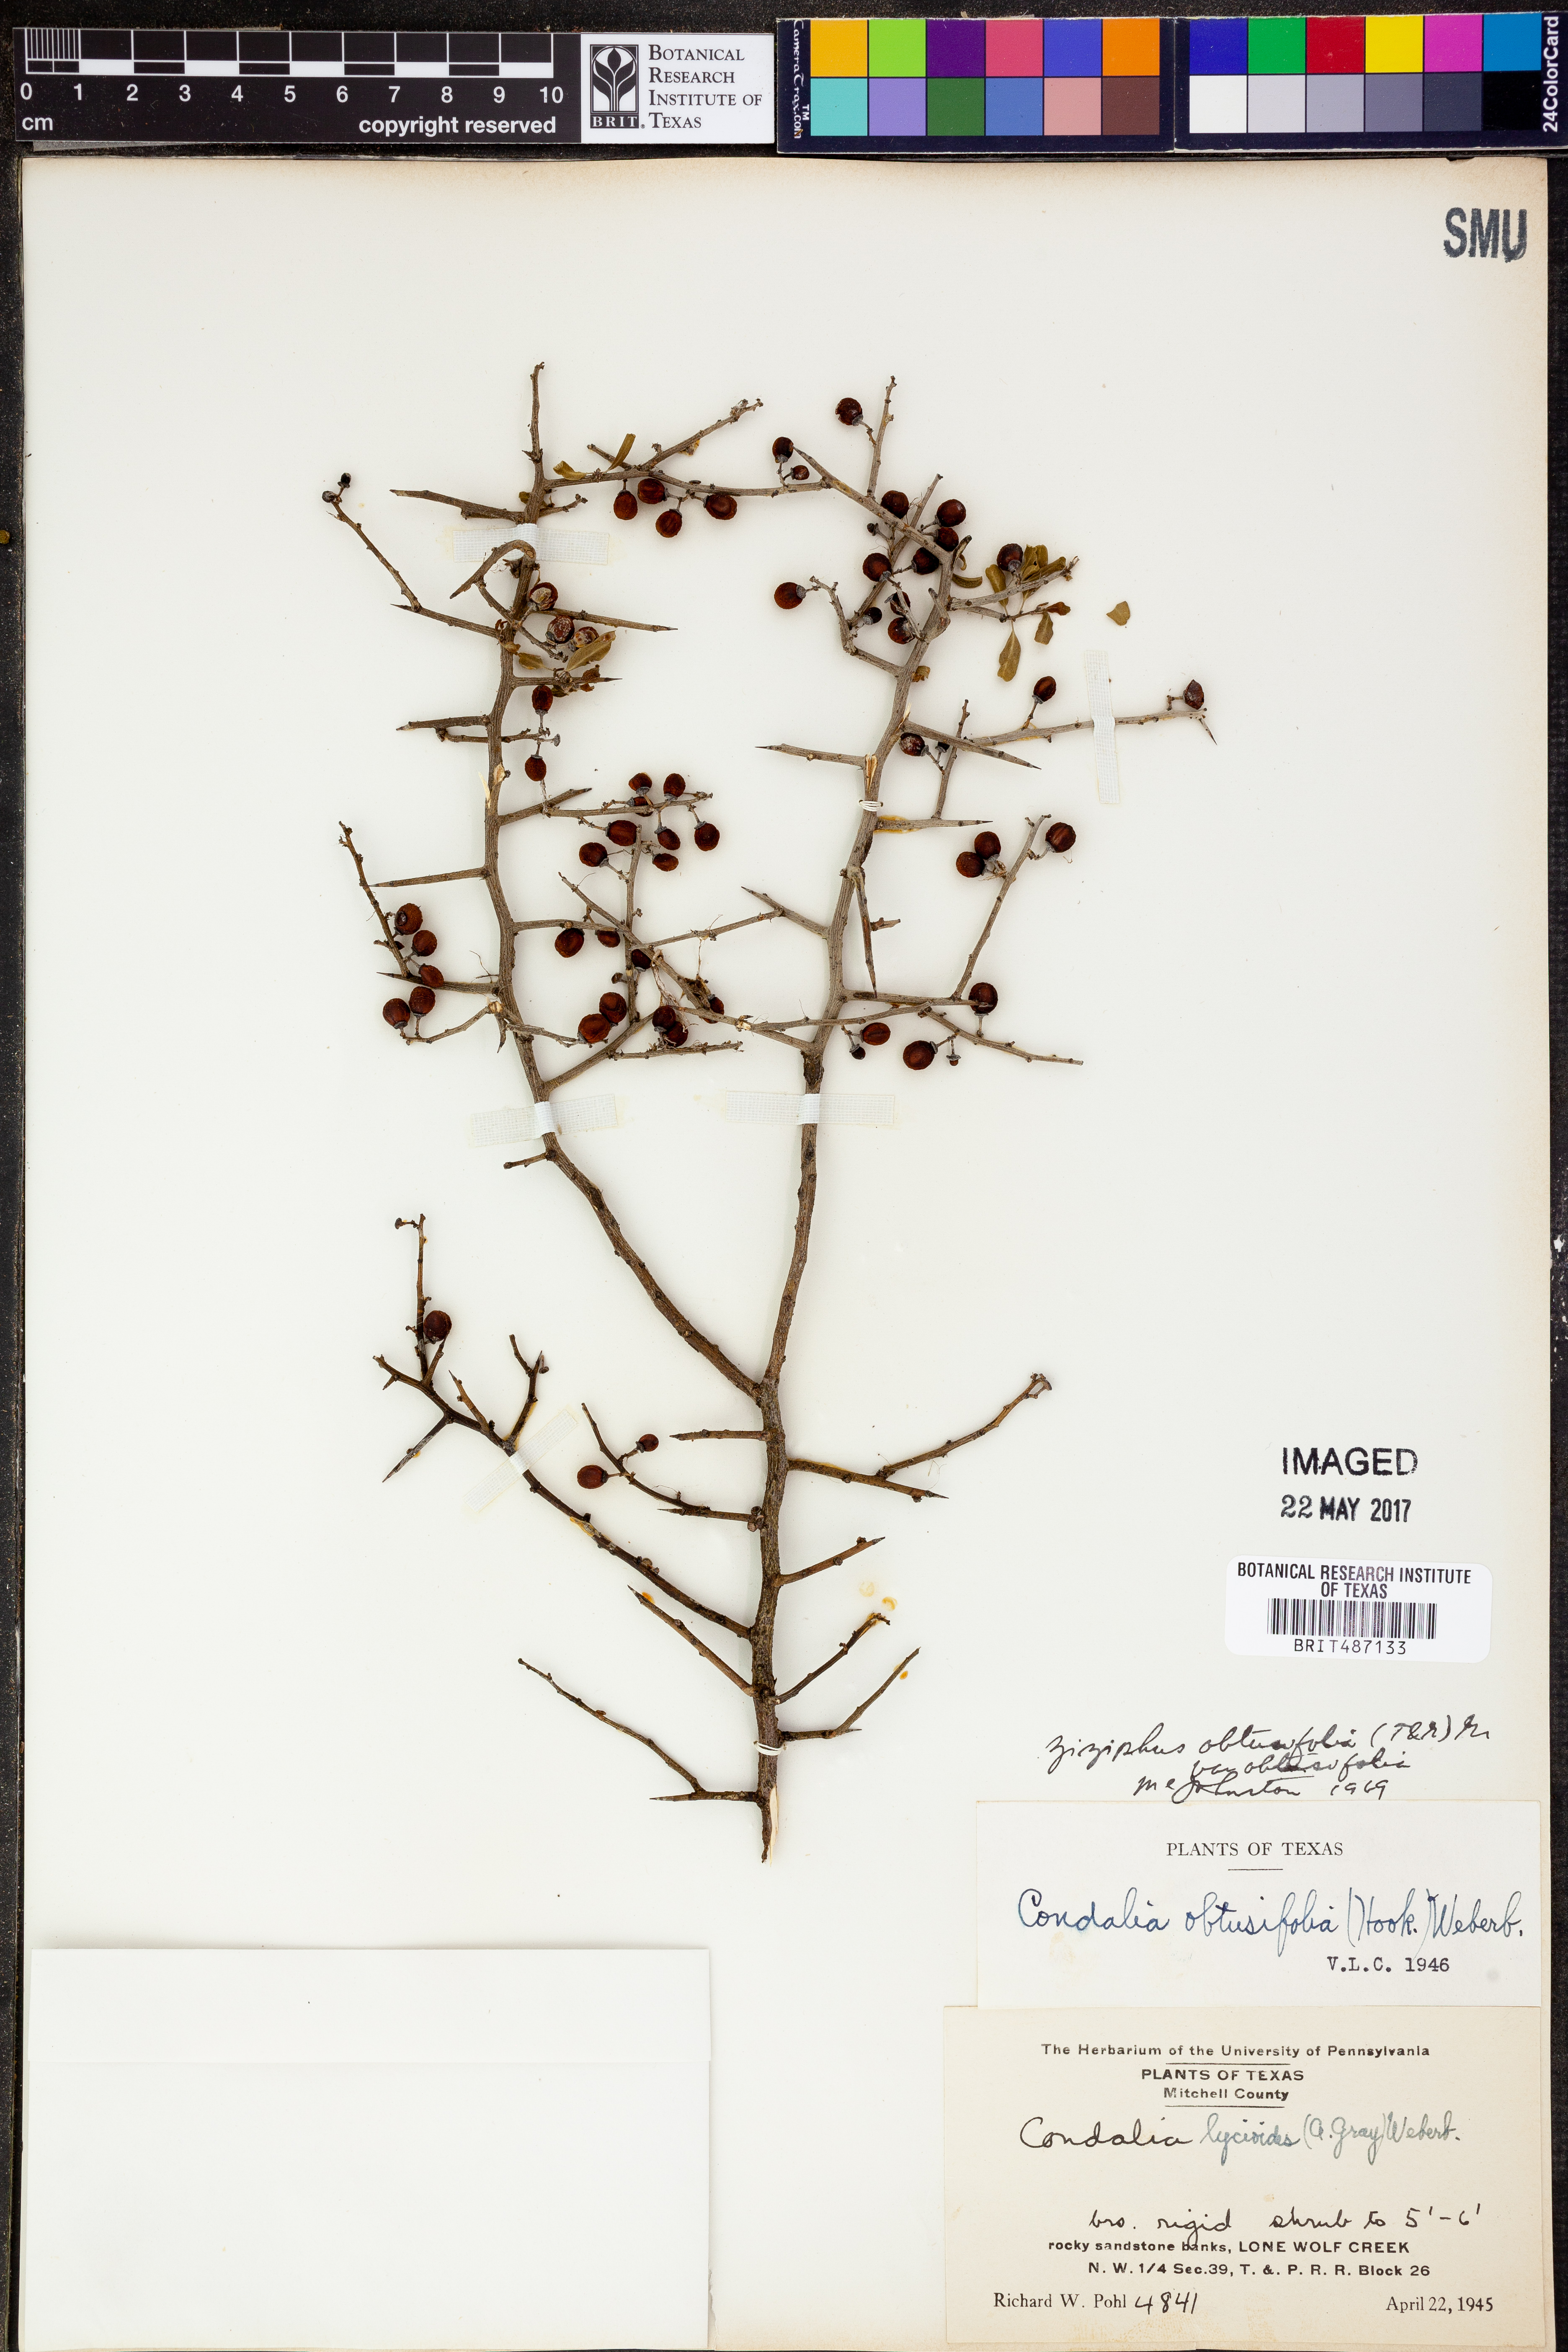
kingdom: Plantae
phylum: Tracheophyta
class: Magnoliopsida
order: Rosales
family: Rhamnaceae
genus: Sarcomphalus
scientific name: Sarcomphalus obtusifolius
